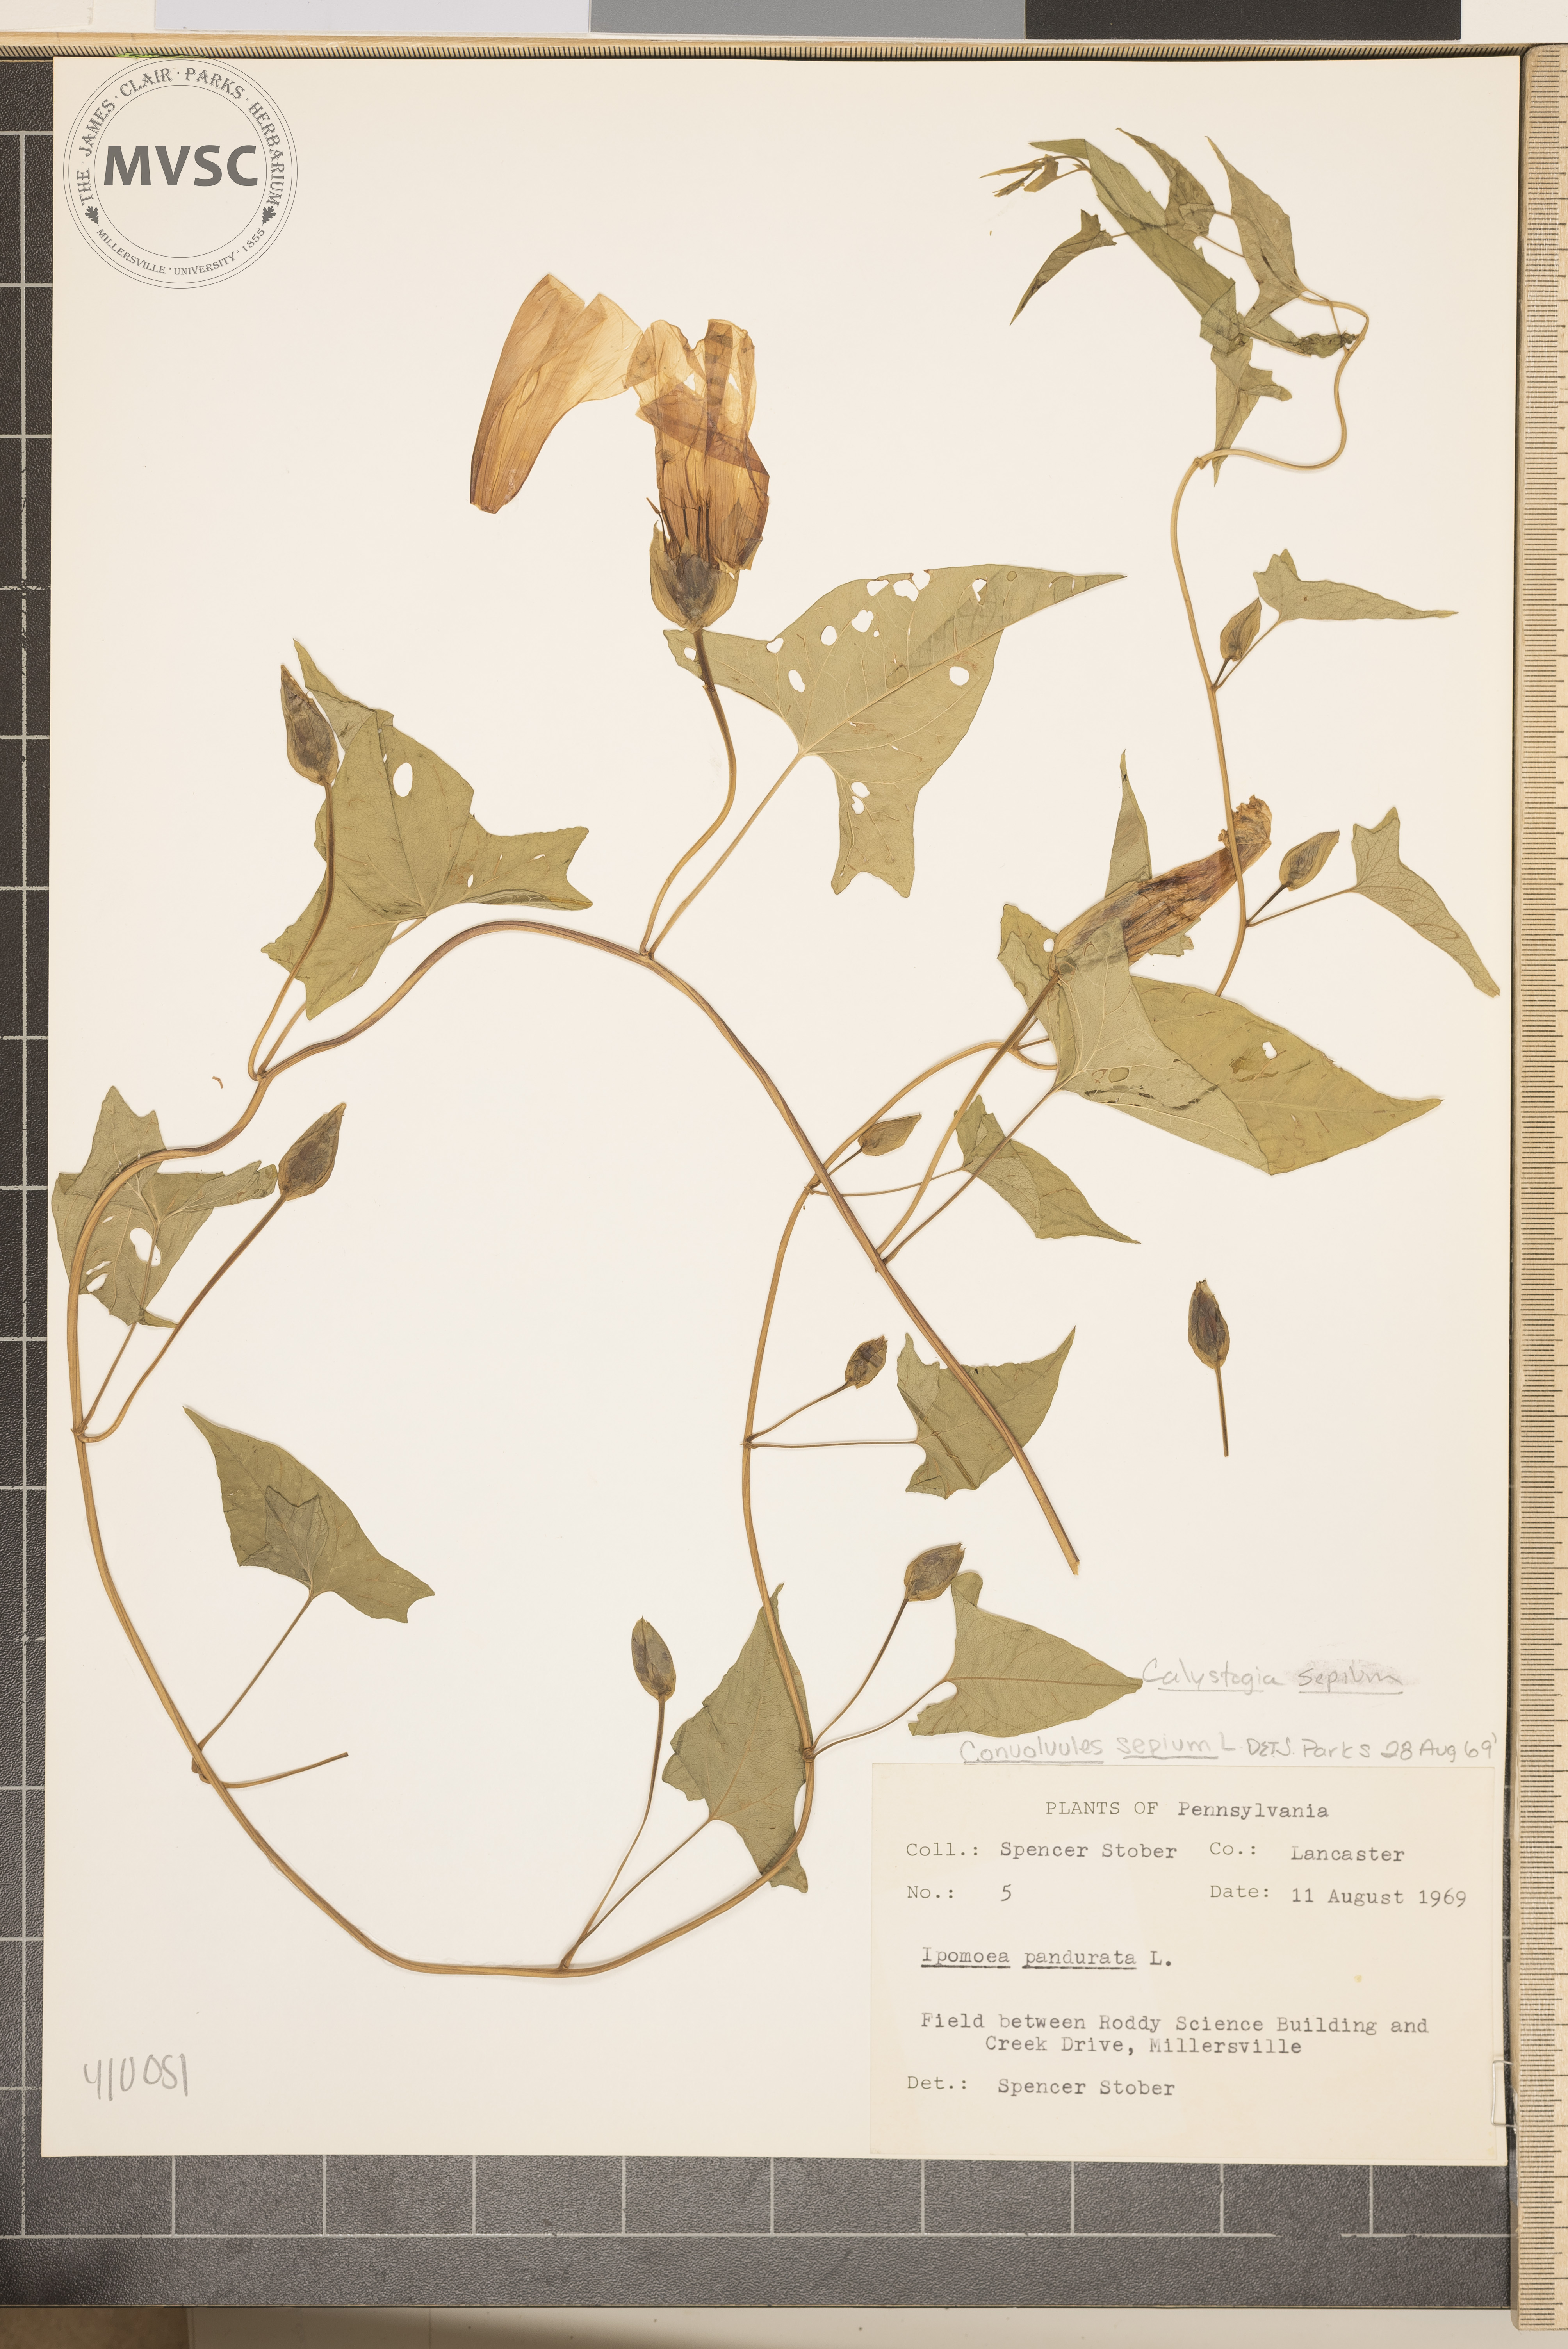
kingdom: Plantae
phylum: Tracheophyta
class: Magnoliopsida
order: Solanales
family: Convolvulaceae
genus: Calystegia
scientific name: Calystegia sepium
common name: Bindweed
